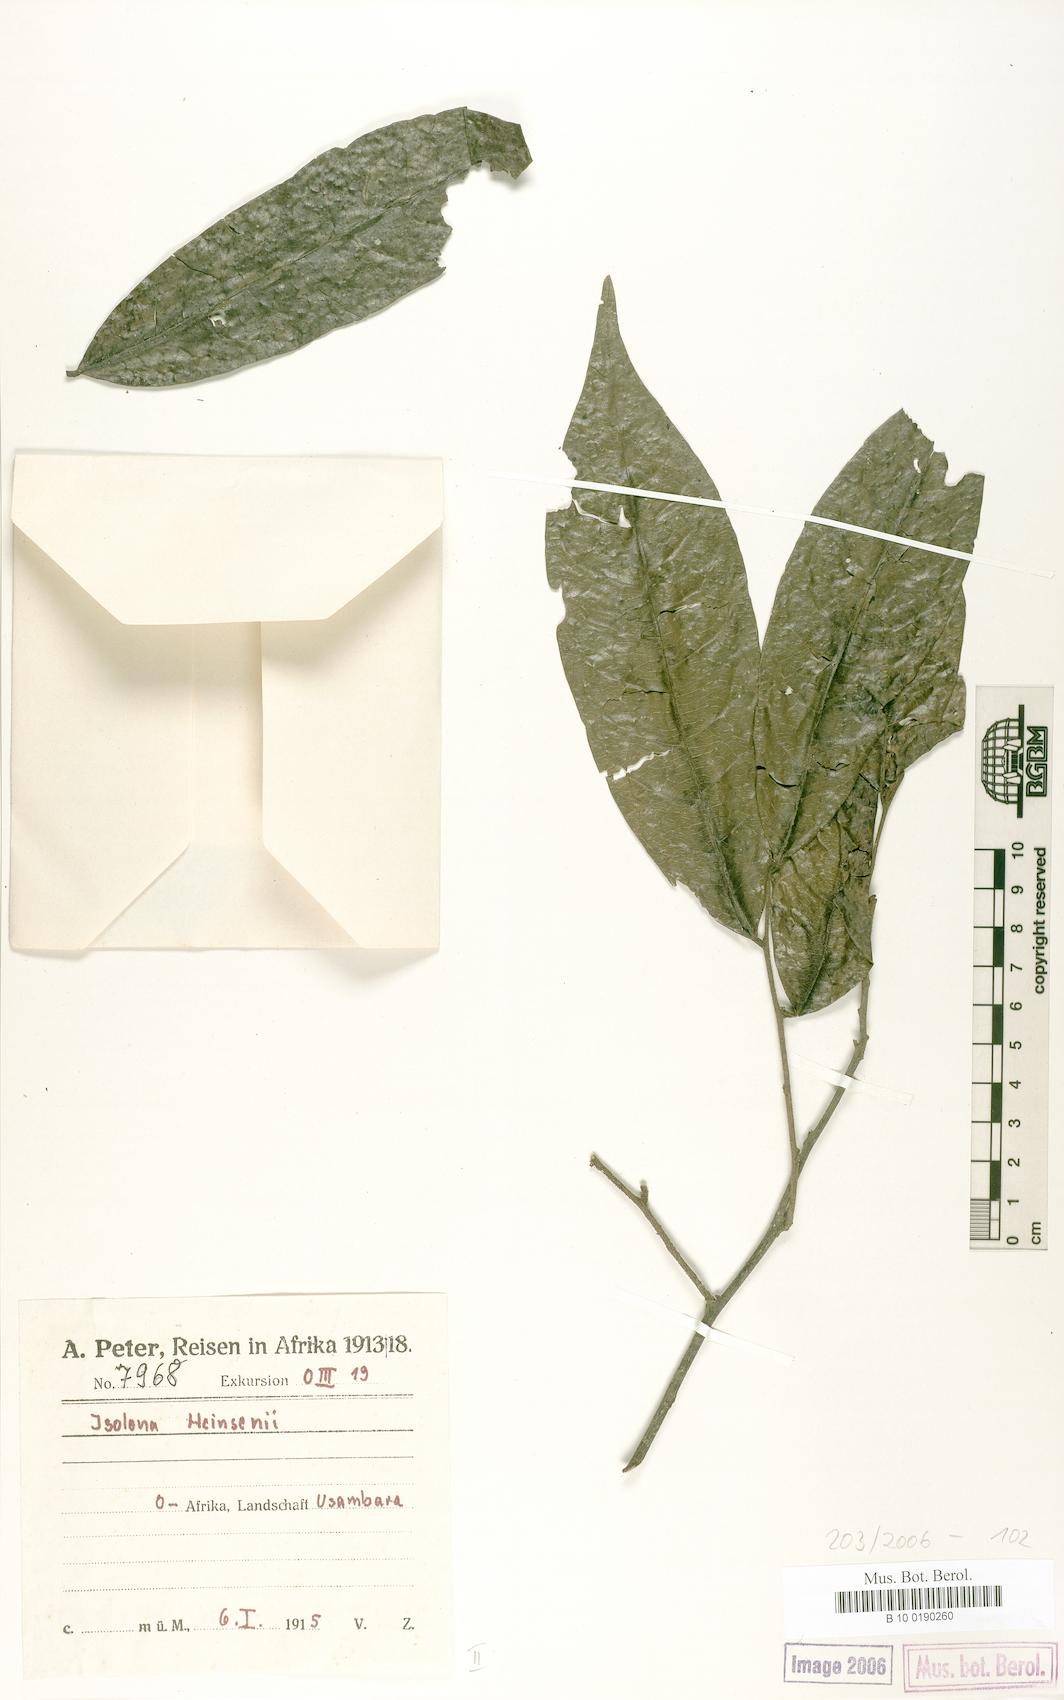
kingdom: Plantae
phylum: Tracheophyta
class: Magnoliopsida
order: Magnoliales
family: Annonaceae
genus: Isolona
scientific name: Isolona heinsenii
